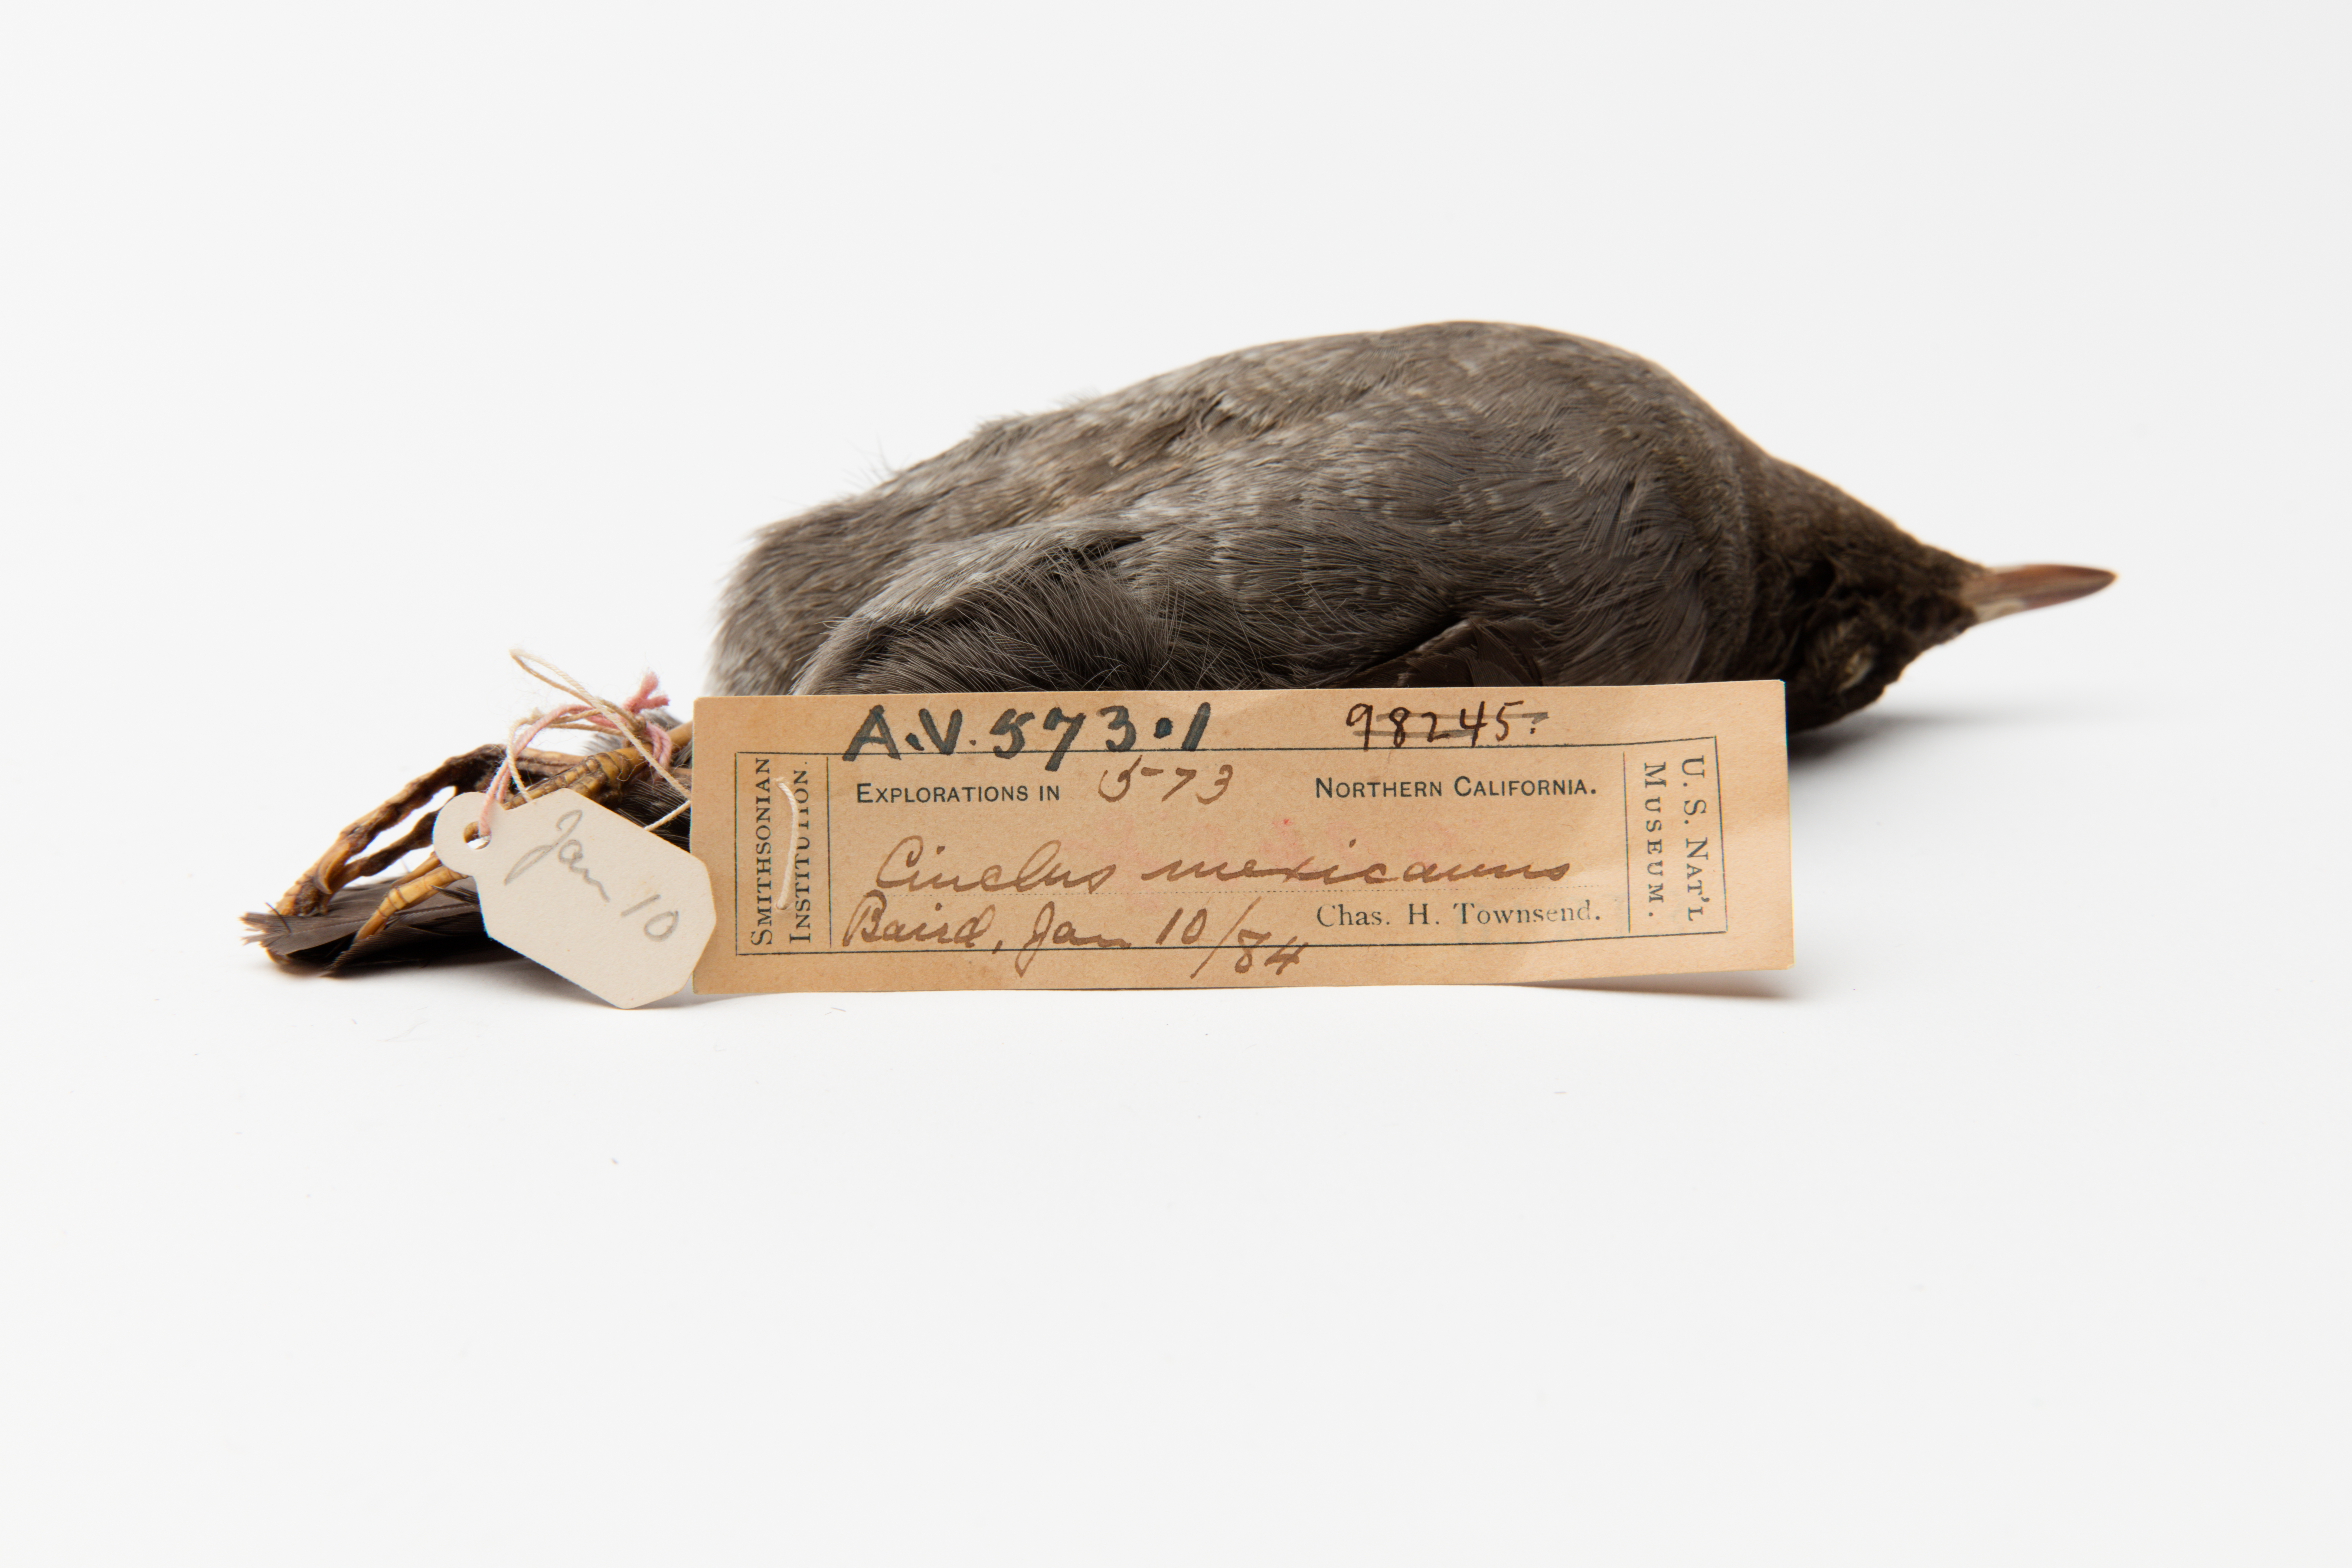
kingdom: Animalia
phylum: Chordata
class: Aves
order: Passeriformes
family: Cinclidae
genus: Cinclus
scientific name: Cinclus mexicanus
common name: American dipper
